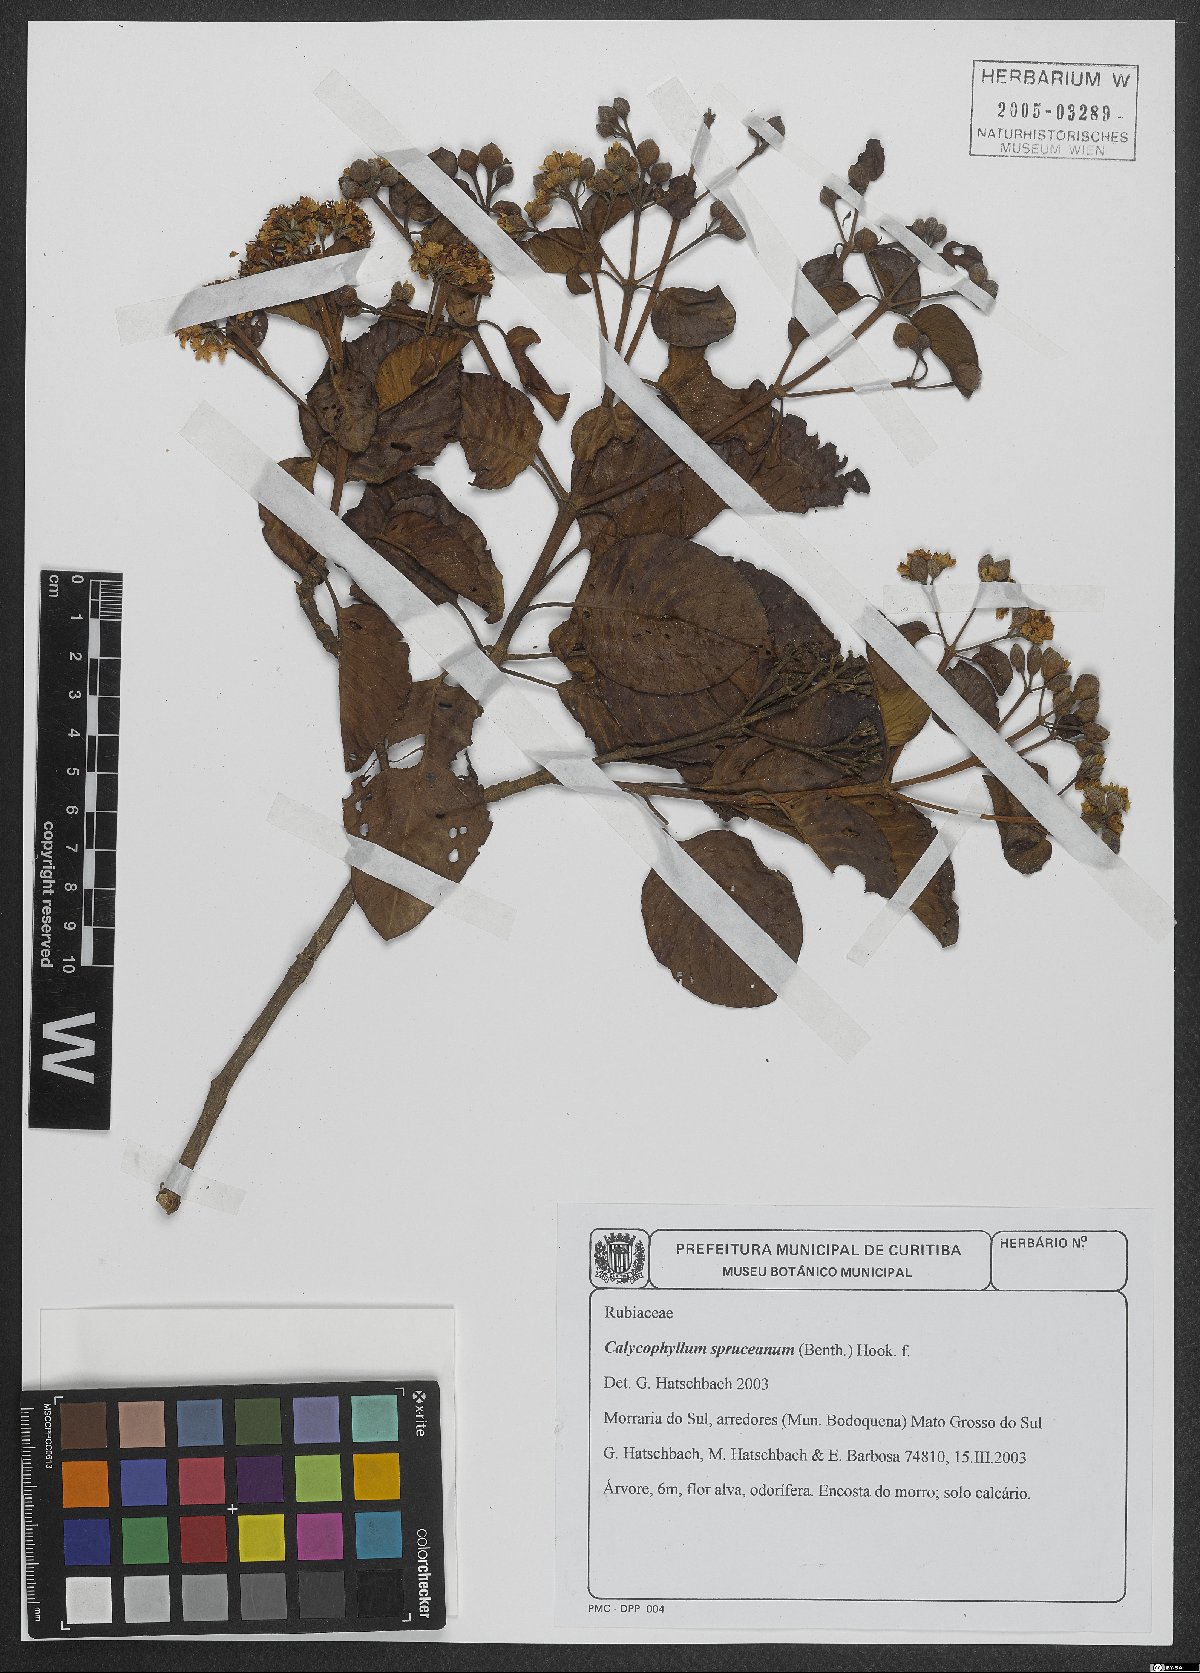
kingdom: Plantae
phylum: Tracheophyta
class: Magnoliopsida
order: Gentianales
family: Rubiaceae
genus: Calycophyllum
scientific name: Calycophyllum spruceanum
